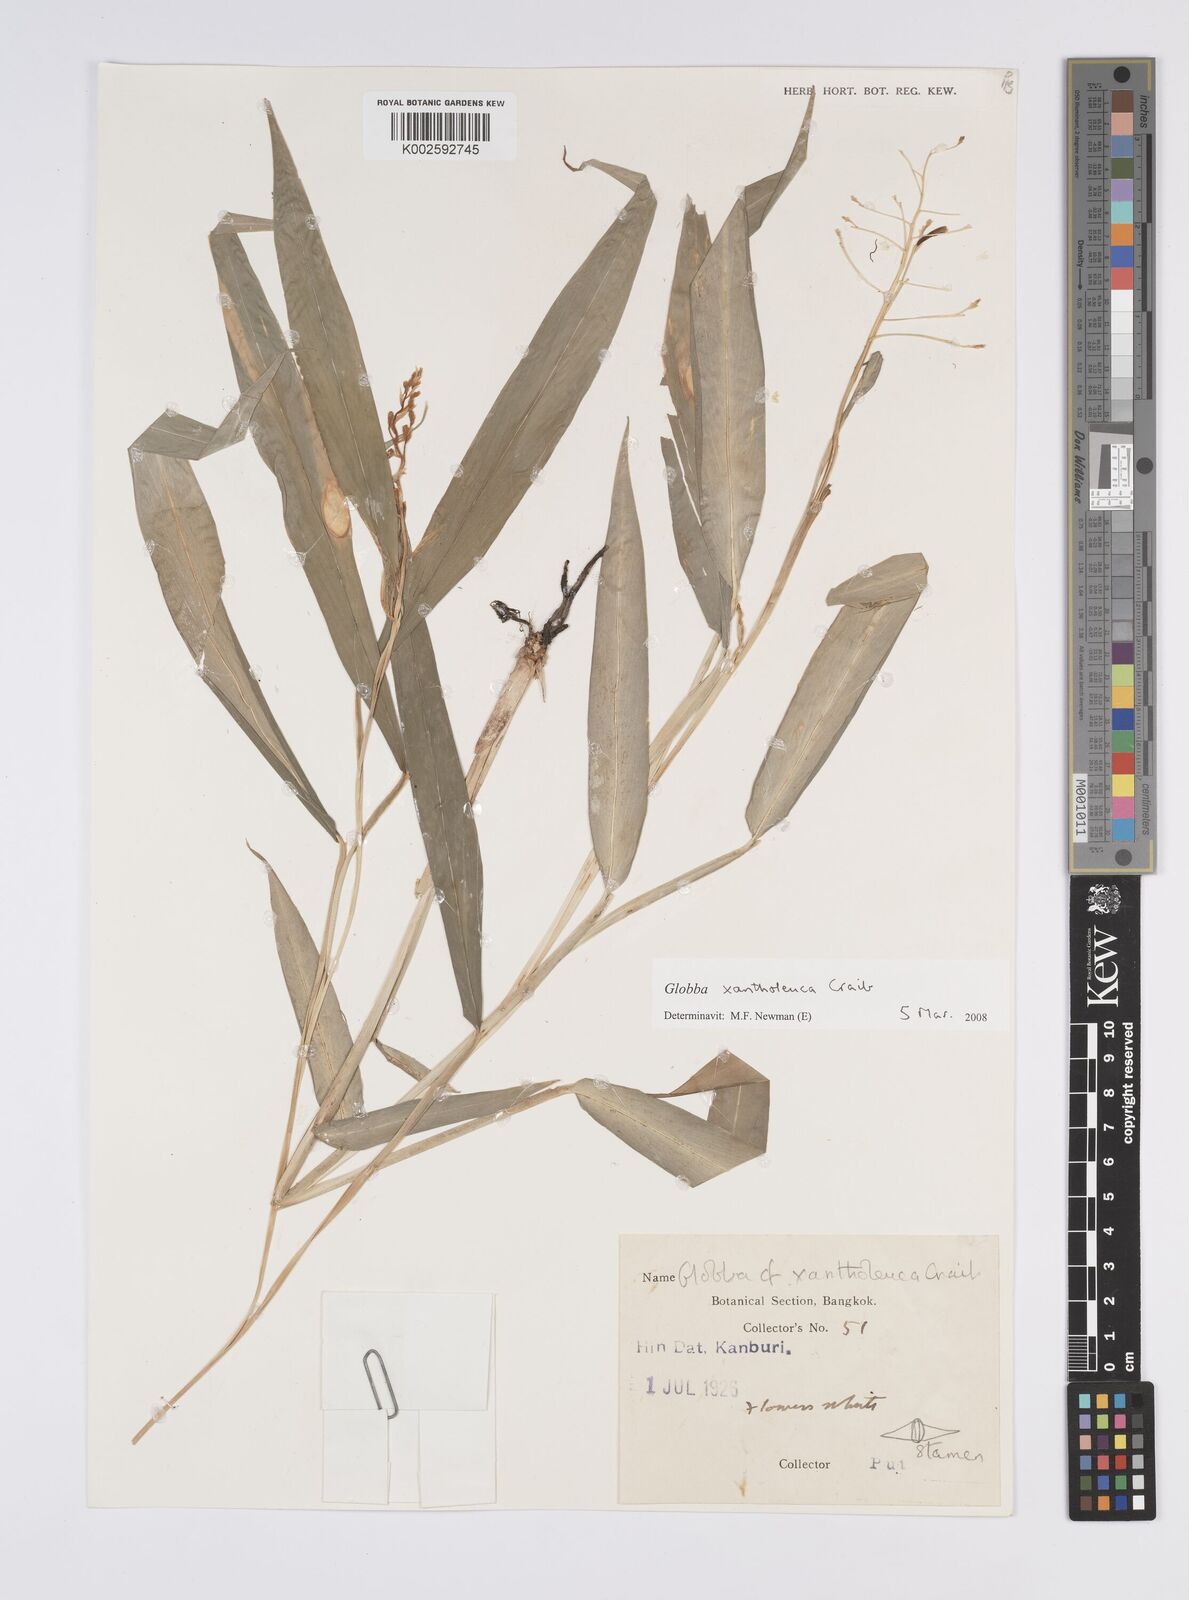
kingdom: Plantae
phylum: Tracheophyta
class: Liliopsida
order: Zingiberales
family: Zingiberaceae
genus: Globba
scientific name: Globba xantholeuca
